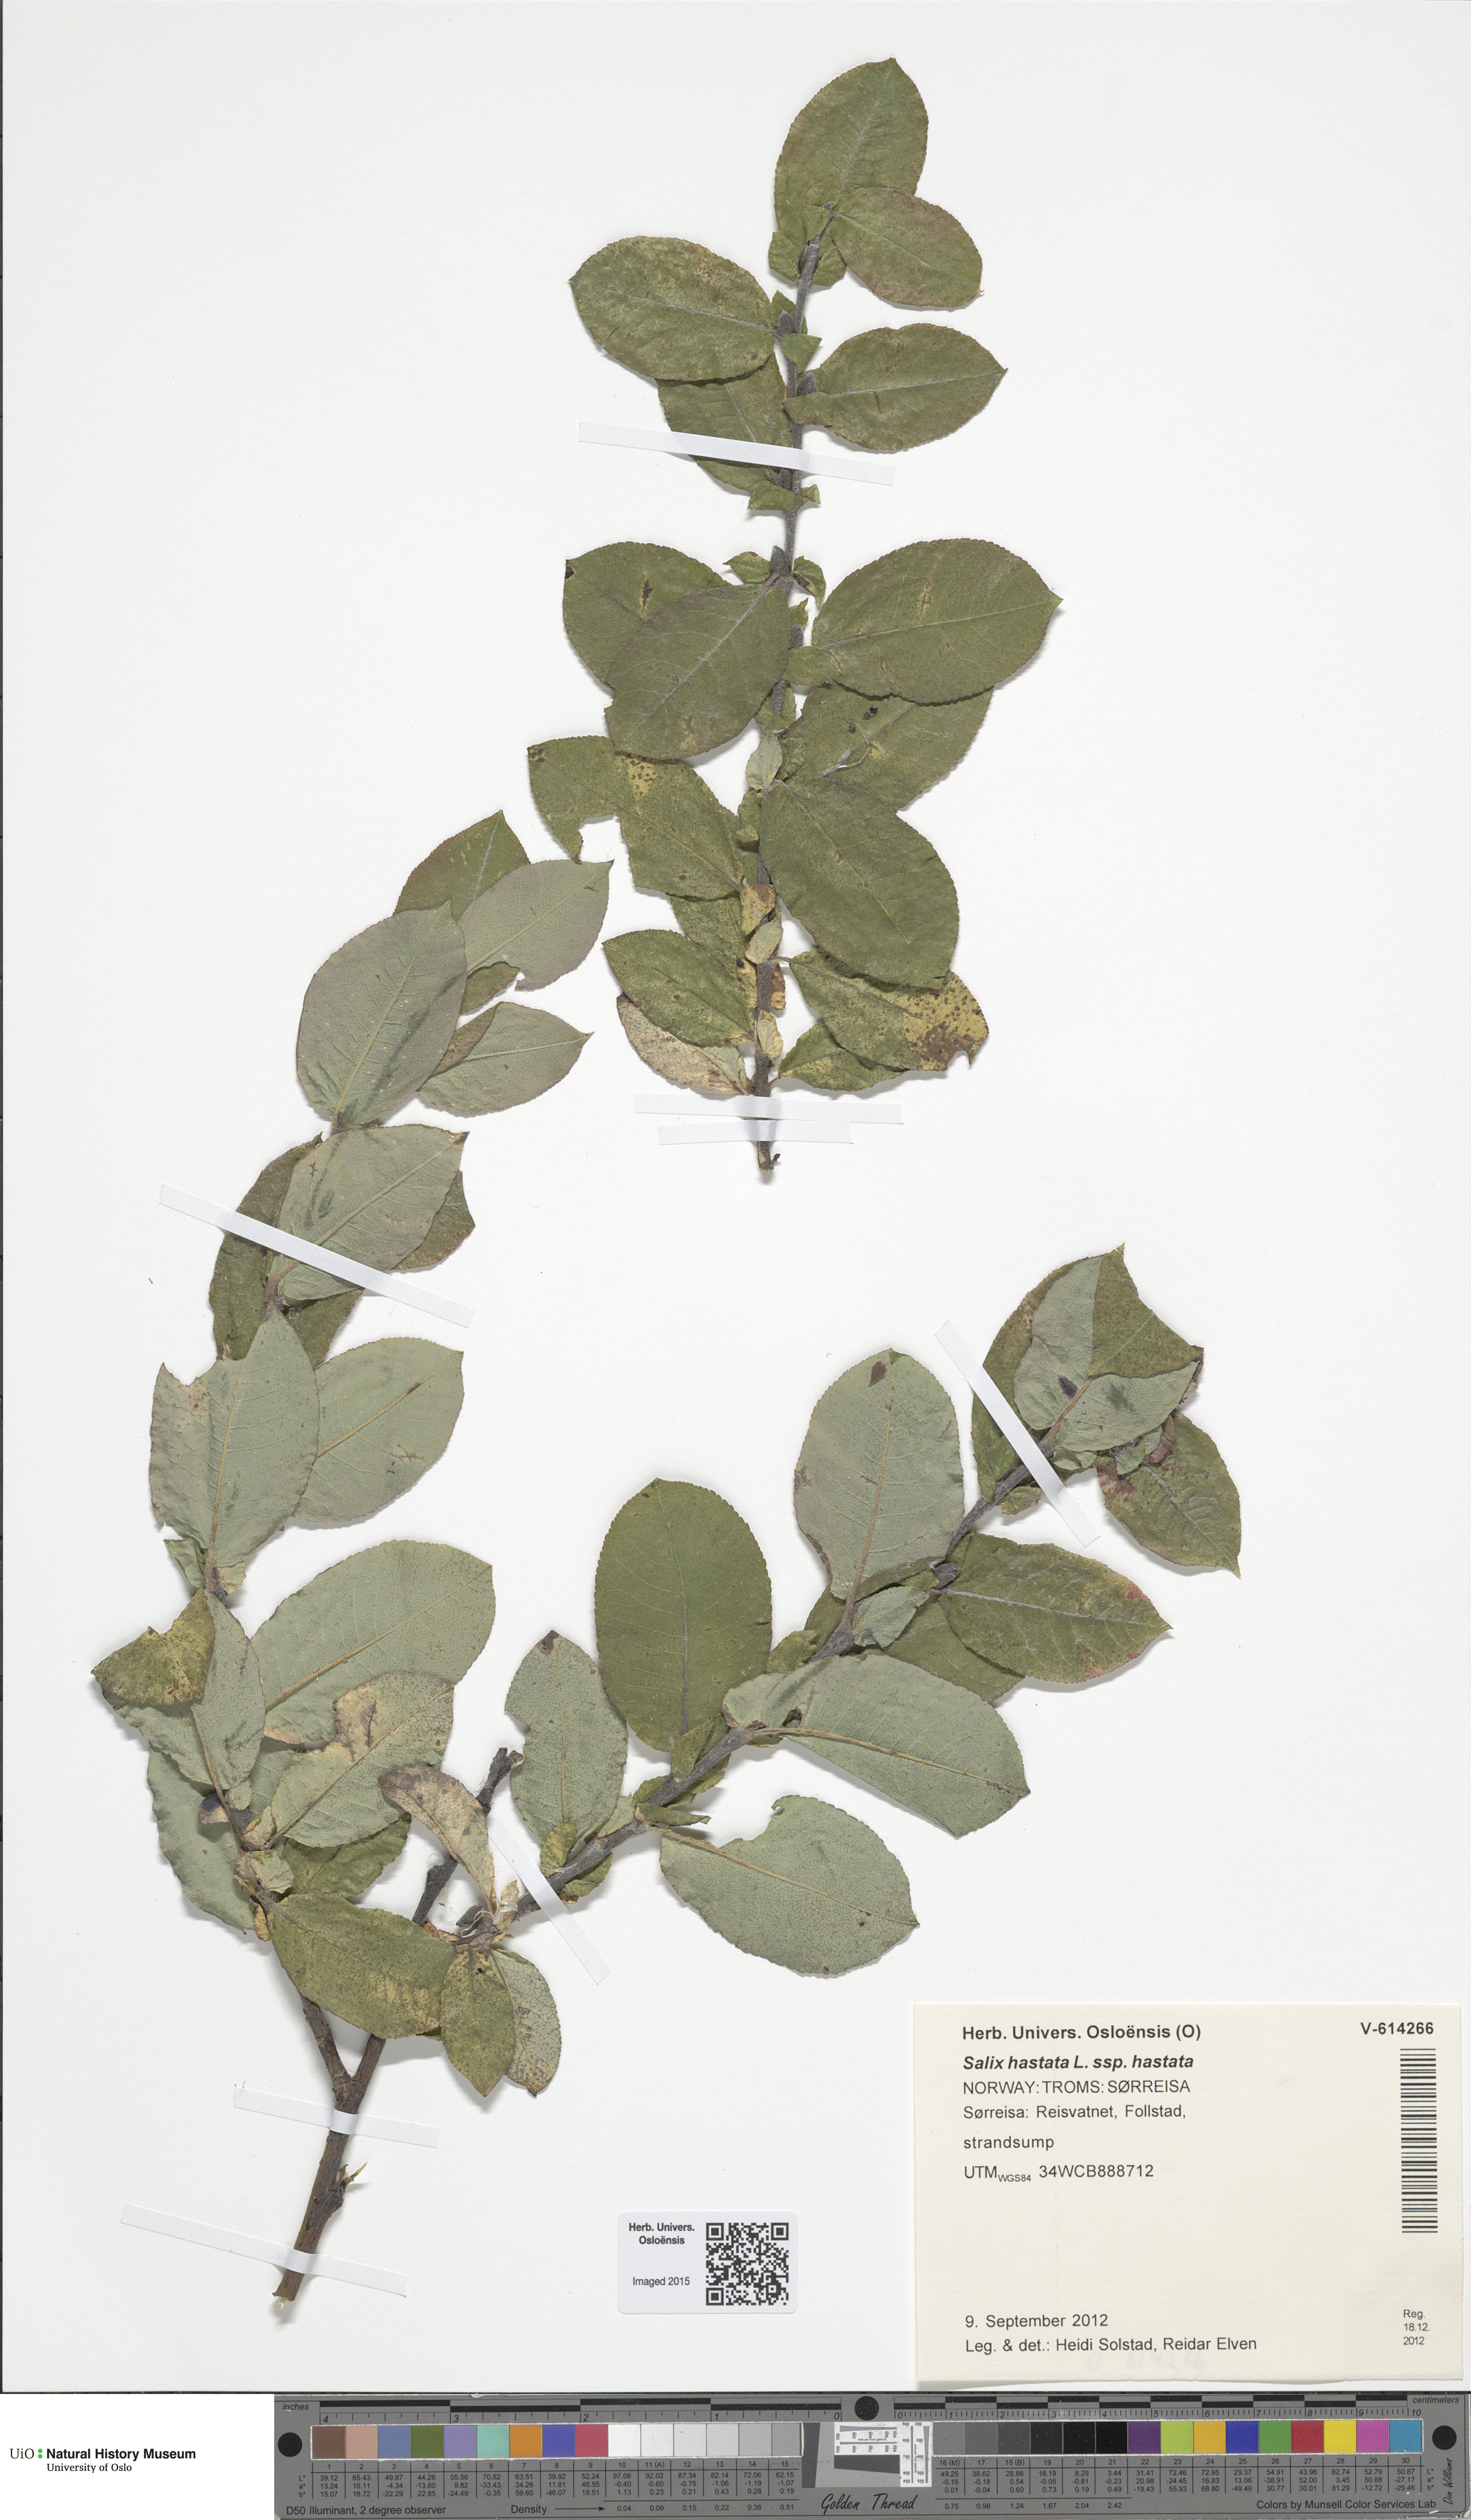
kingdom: Plantae
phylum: Tracheophyta
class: Magnoliopsida
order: Malpighiales
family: Salicaceae
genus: Salix
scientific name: Salix hastata
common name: Halberd willow
